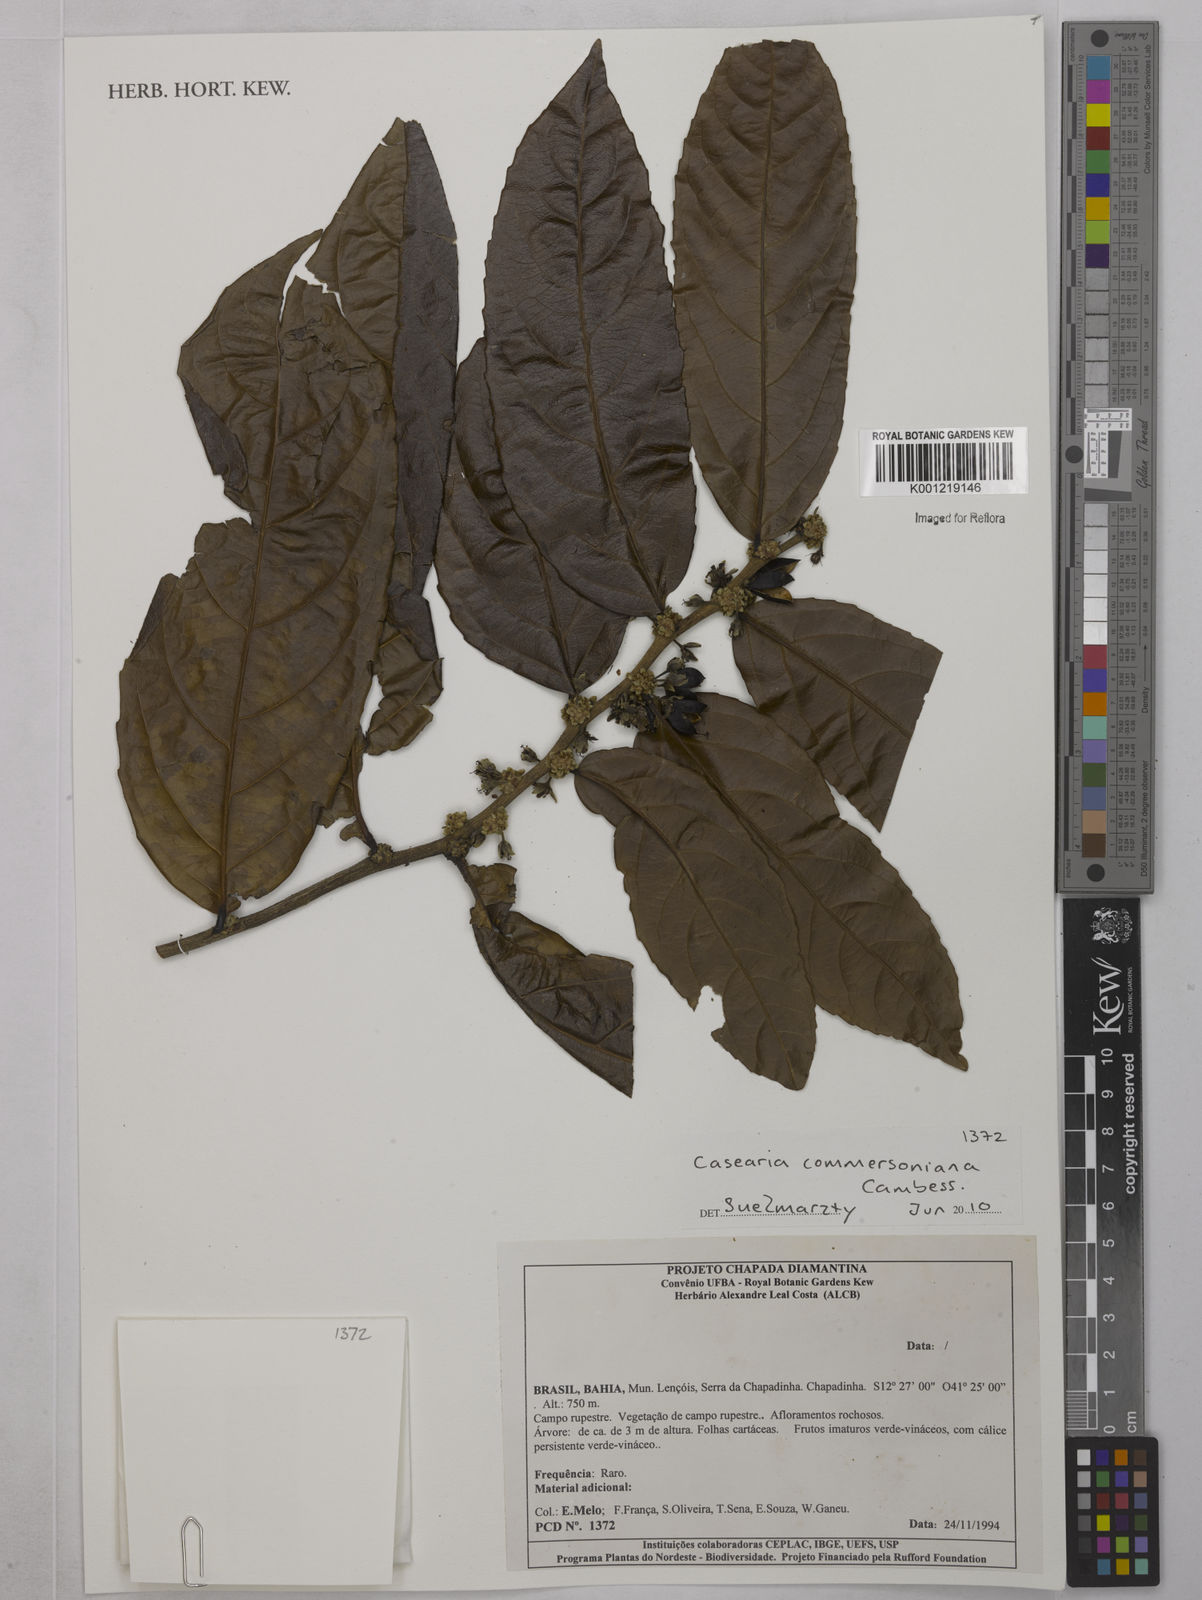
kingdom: Plantae
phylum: Tracheophyta
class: Magnoliopsida
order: Malpighiales
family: Salicaceae
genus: Piparea
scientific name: Piparea dentata
